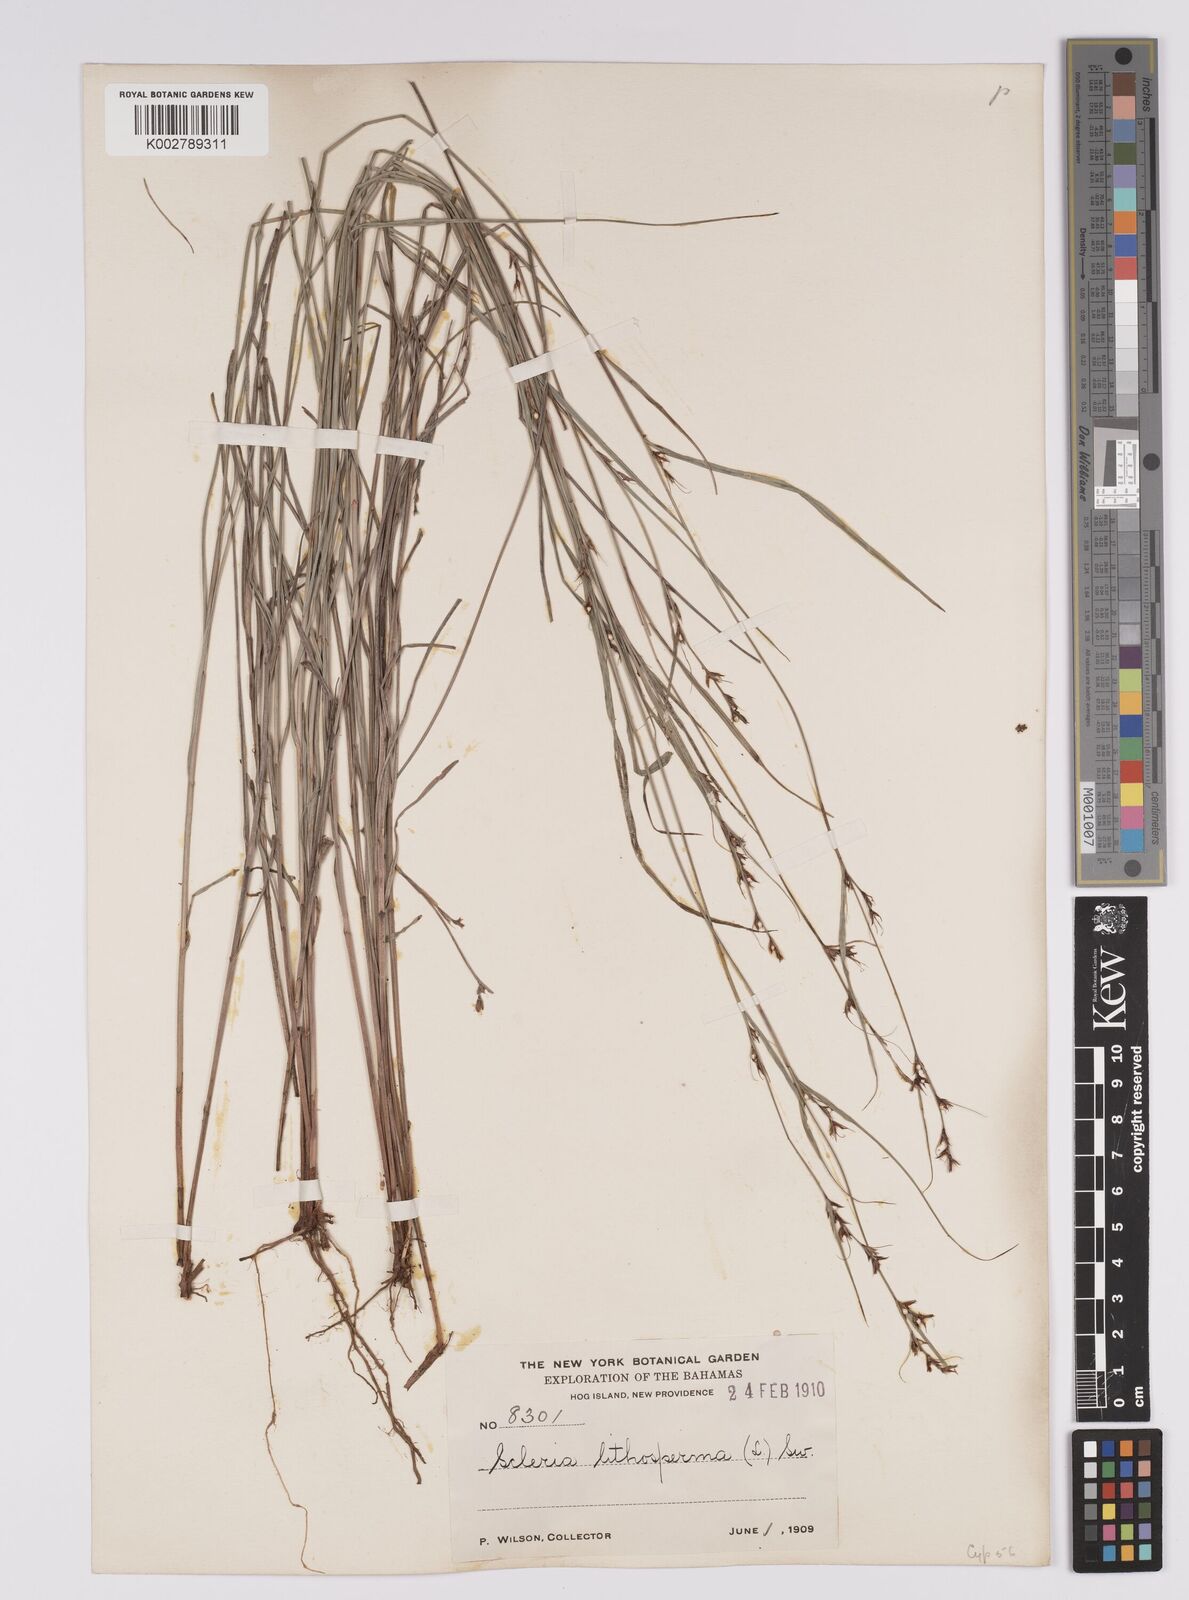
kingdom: Plantae
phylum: Tracheophyta
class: Liliopsida
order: Poales
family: Cyperaceae
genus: Scleria
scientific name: Scleria lithosperma
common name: Florida keys nut-rush
